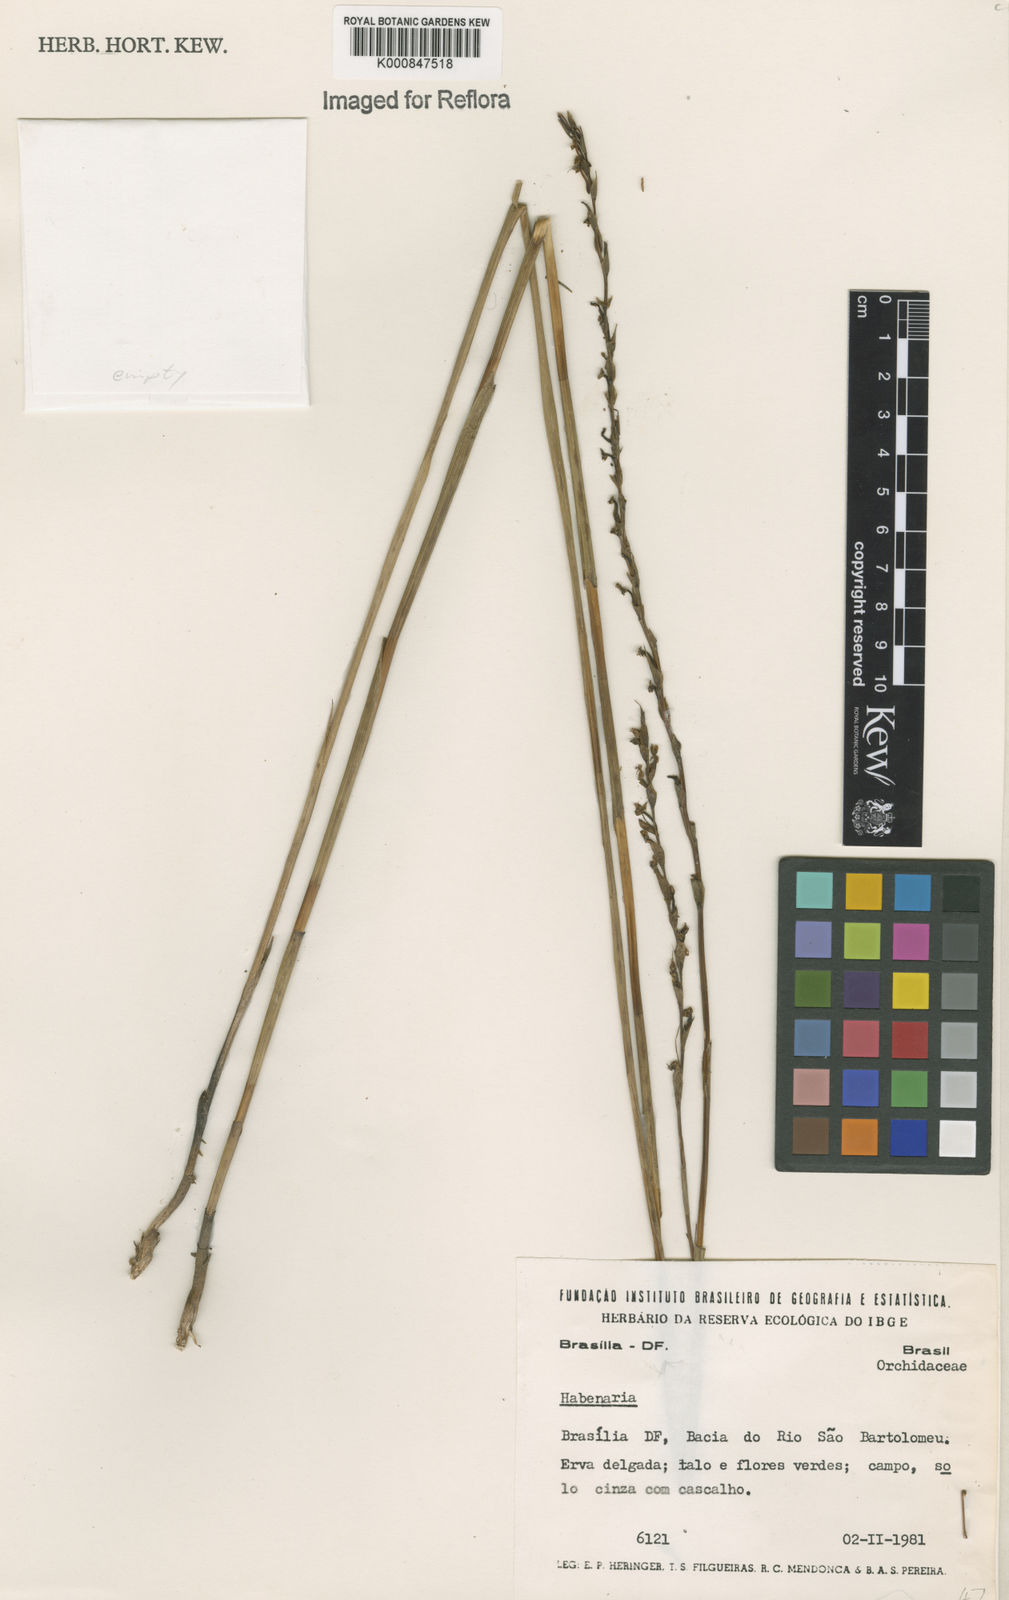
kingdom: Plantae
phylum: Tracheophyta
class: Liliopsida
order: Asparagales
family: Orchidaceae
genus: Habenaria
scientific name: Habenaria
